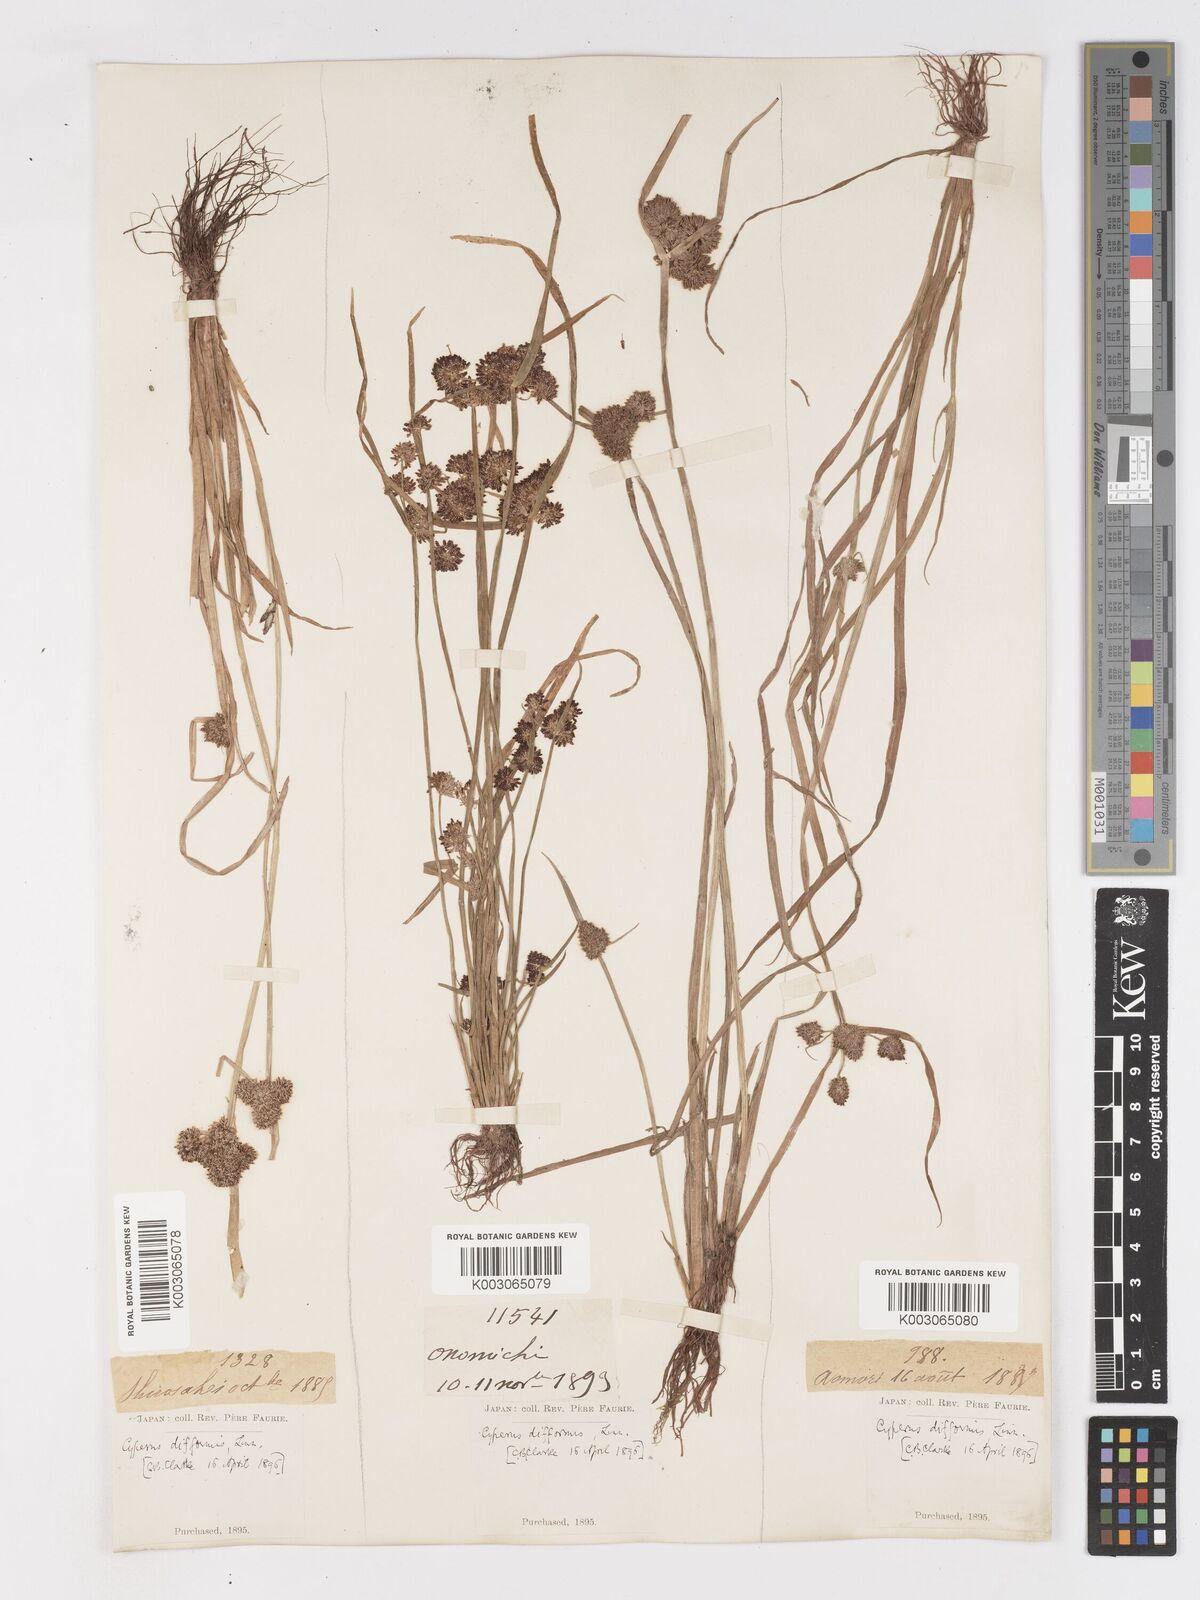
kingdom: Plantae
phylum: Tracheophyta
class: Liliopsida
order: Poales
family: Cyperaceae
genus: Cyperus
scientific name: Cyperus difformis
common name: Variable flatsedge
